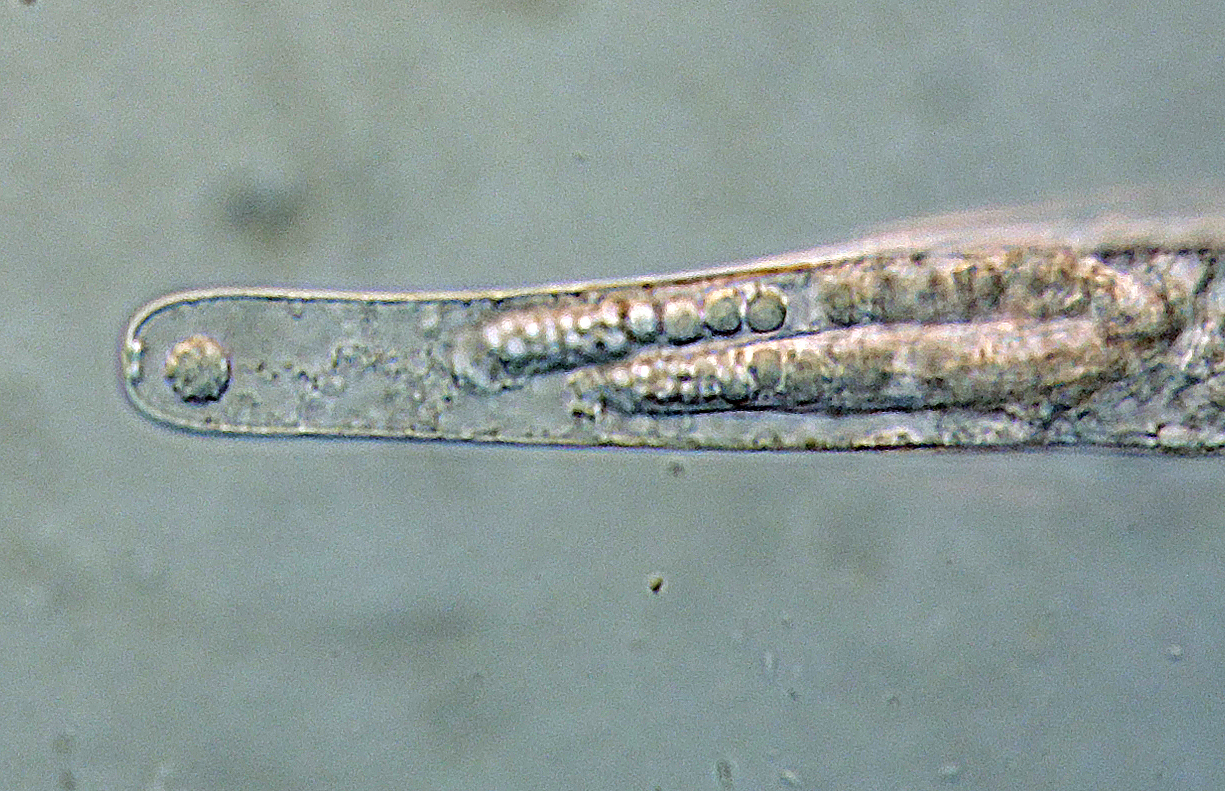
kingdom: Fungi
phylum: Ascomycota
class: Sordariomycetes
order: Sordariales
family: Lasiosphaeriaceae
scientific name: Lasiosphaeriaceae
